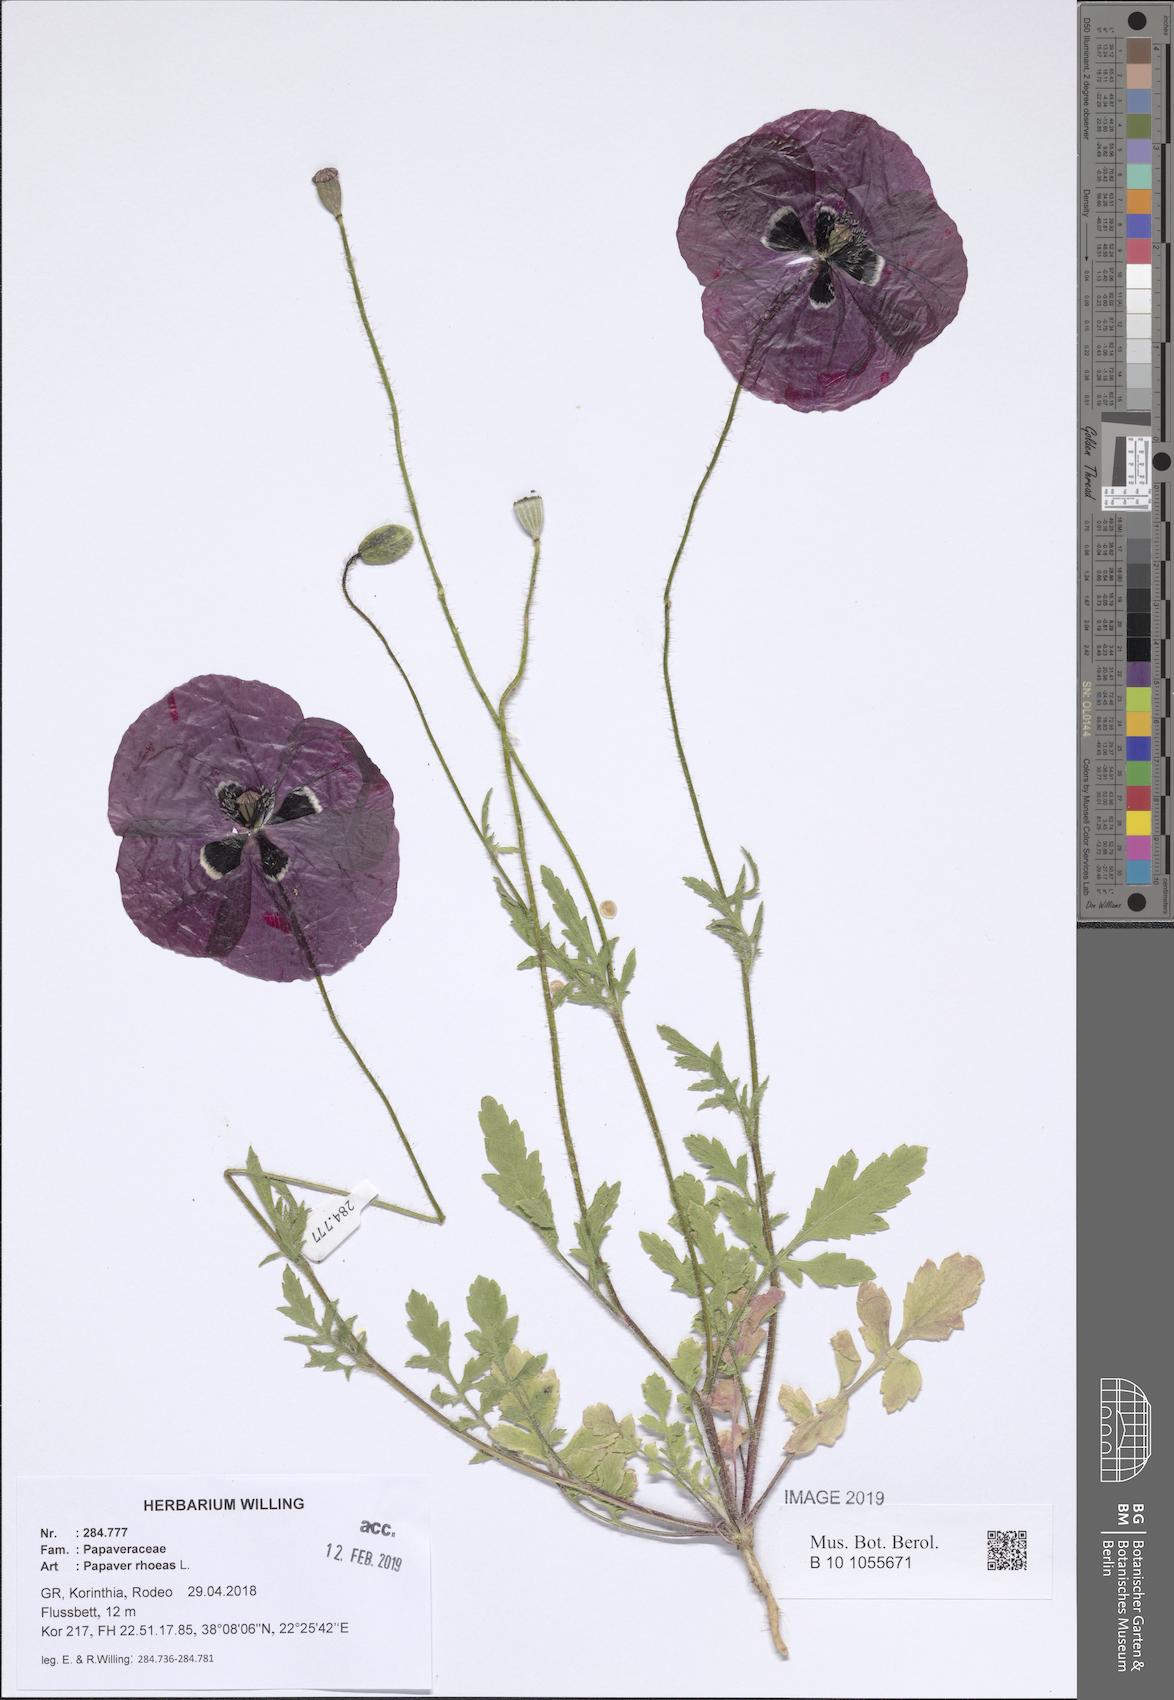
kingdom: Plantae
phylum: Tracheophyta
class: Magnoliopsida
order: Ranunculales
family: Papaveraceae
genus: Papaver
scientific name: Papaver rhoeas
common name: Corn poppy
